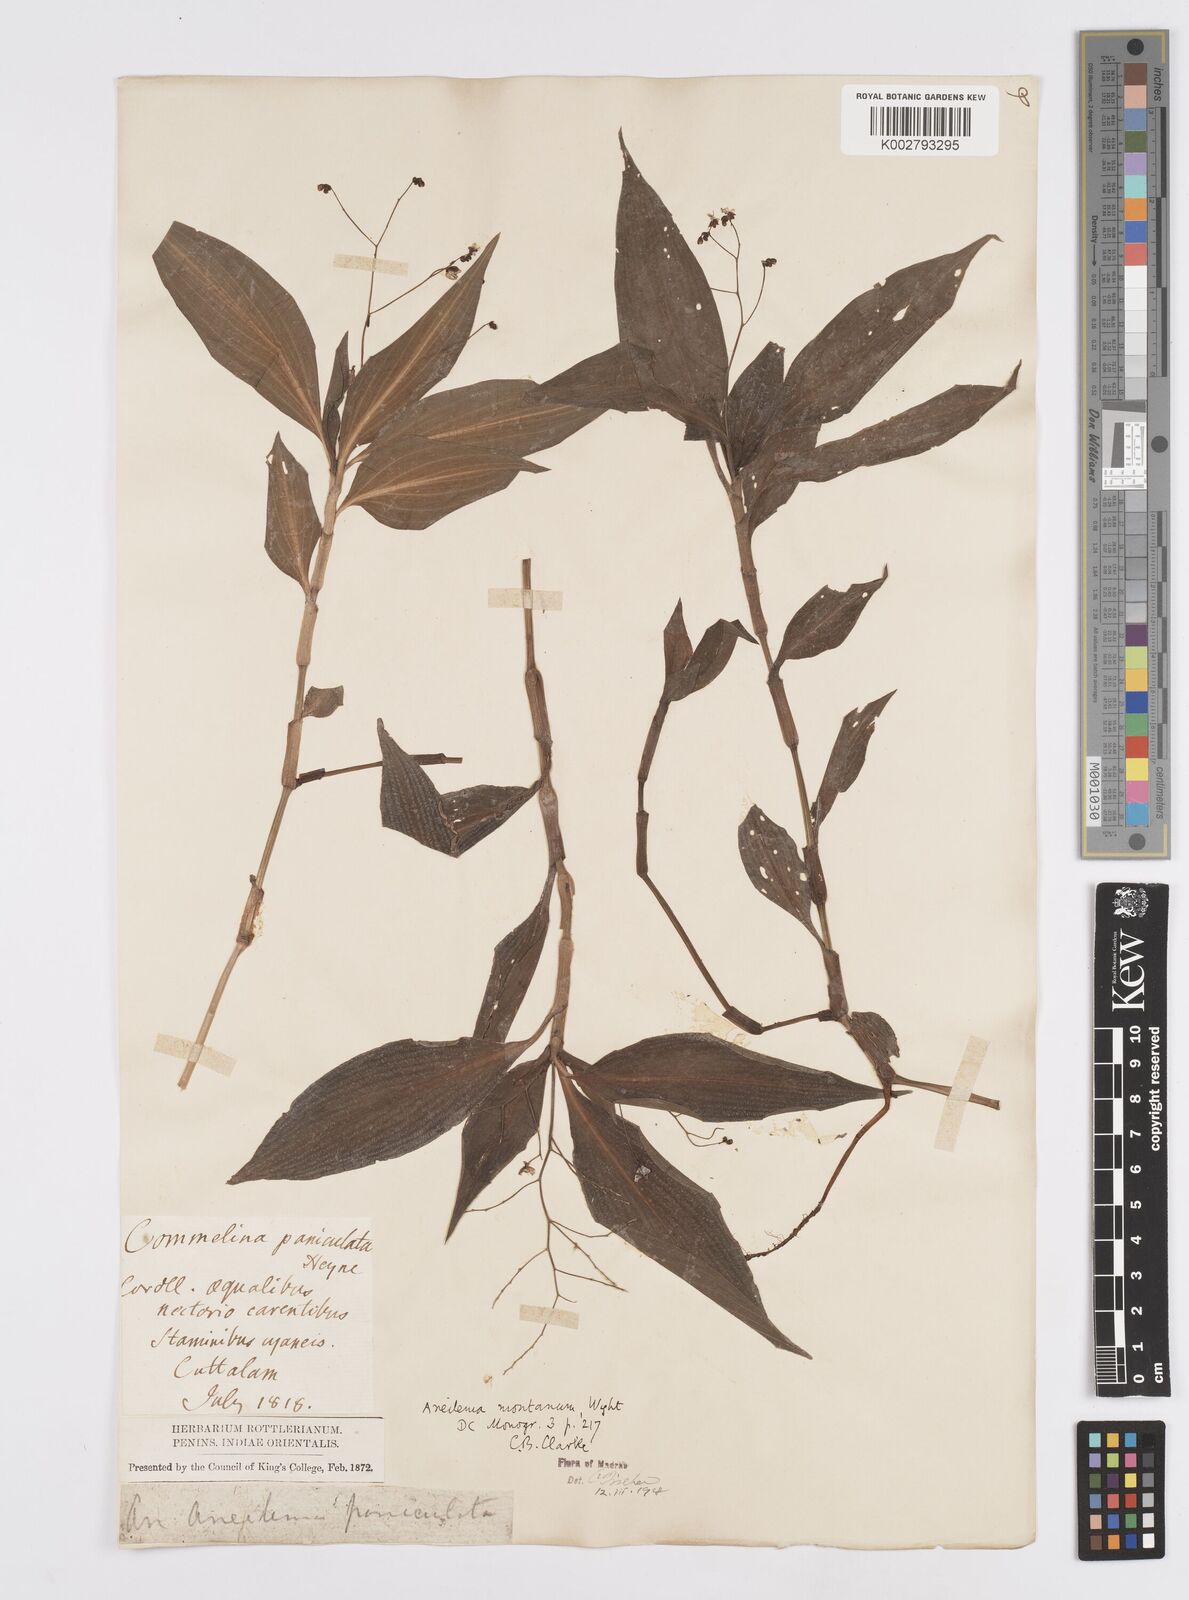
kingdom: Plantae
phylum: Tracheophyta
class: Liliopsida
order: Commelinales
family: Commelinaceae
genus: Murdannia
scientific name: Murdannia
